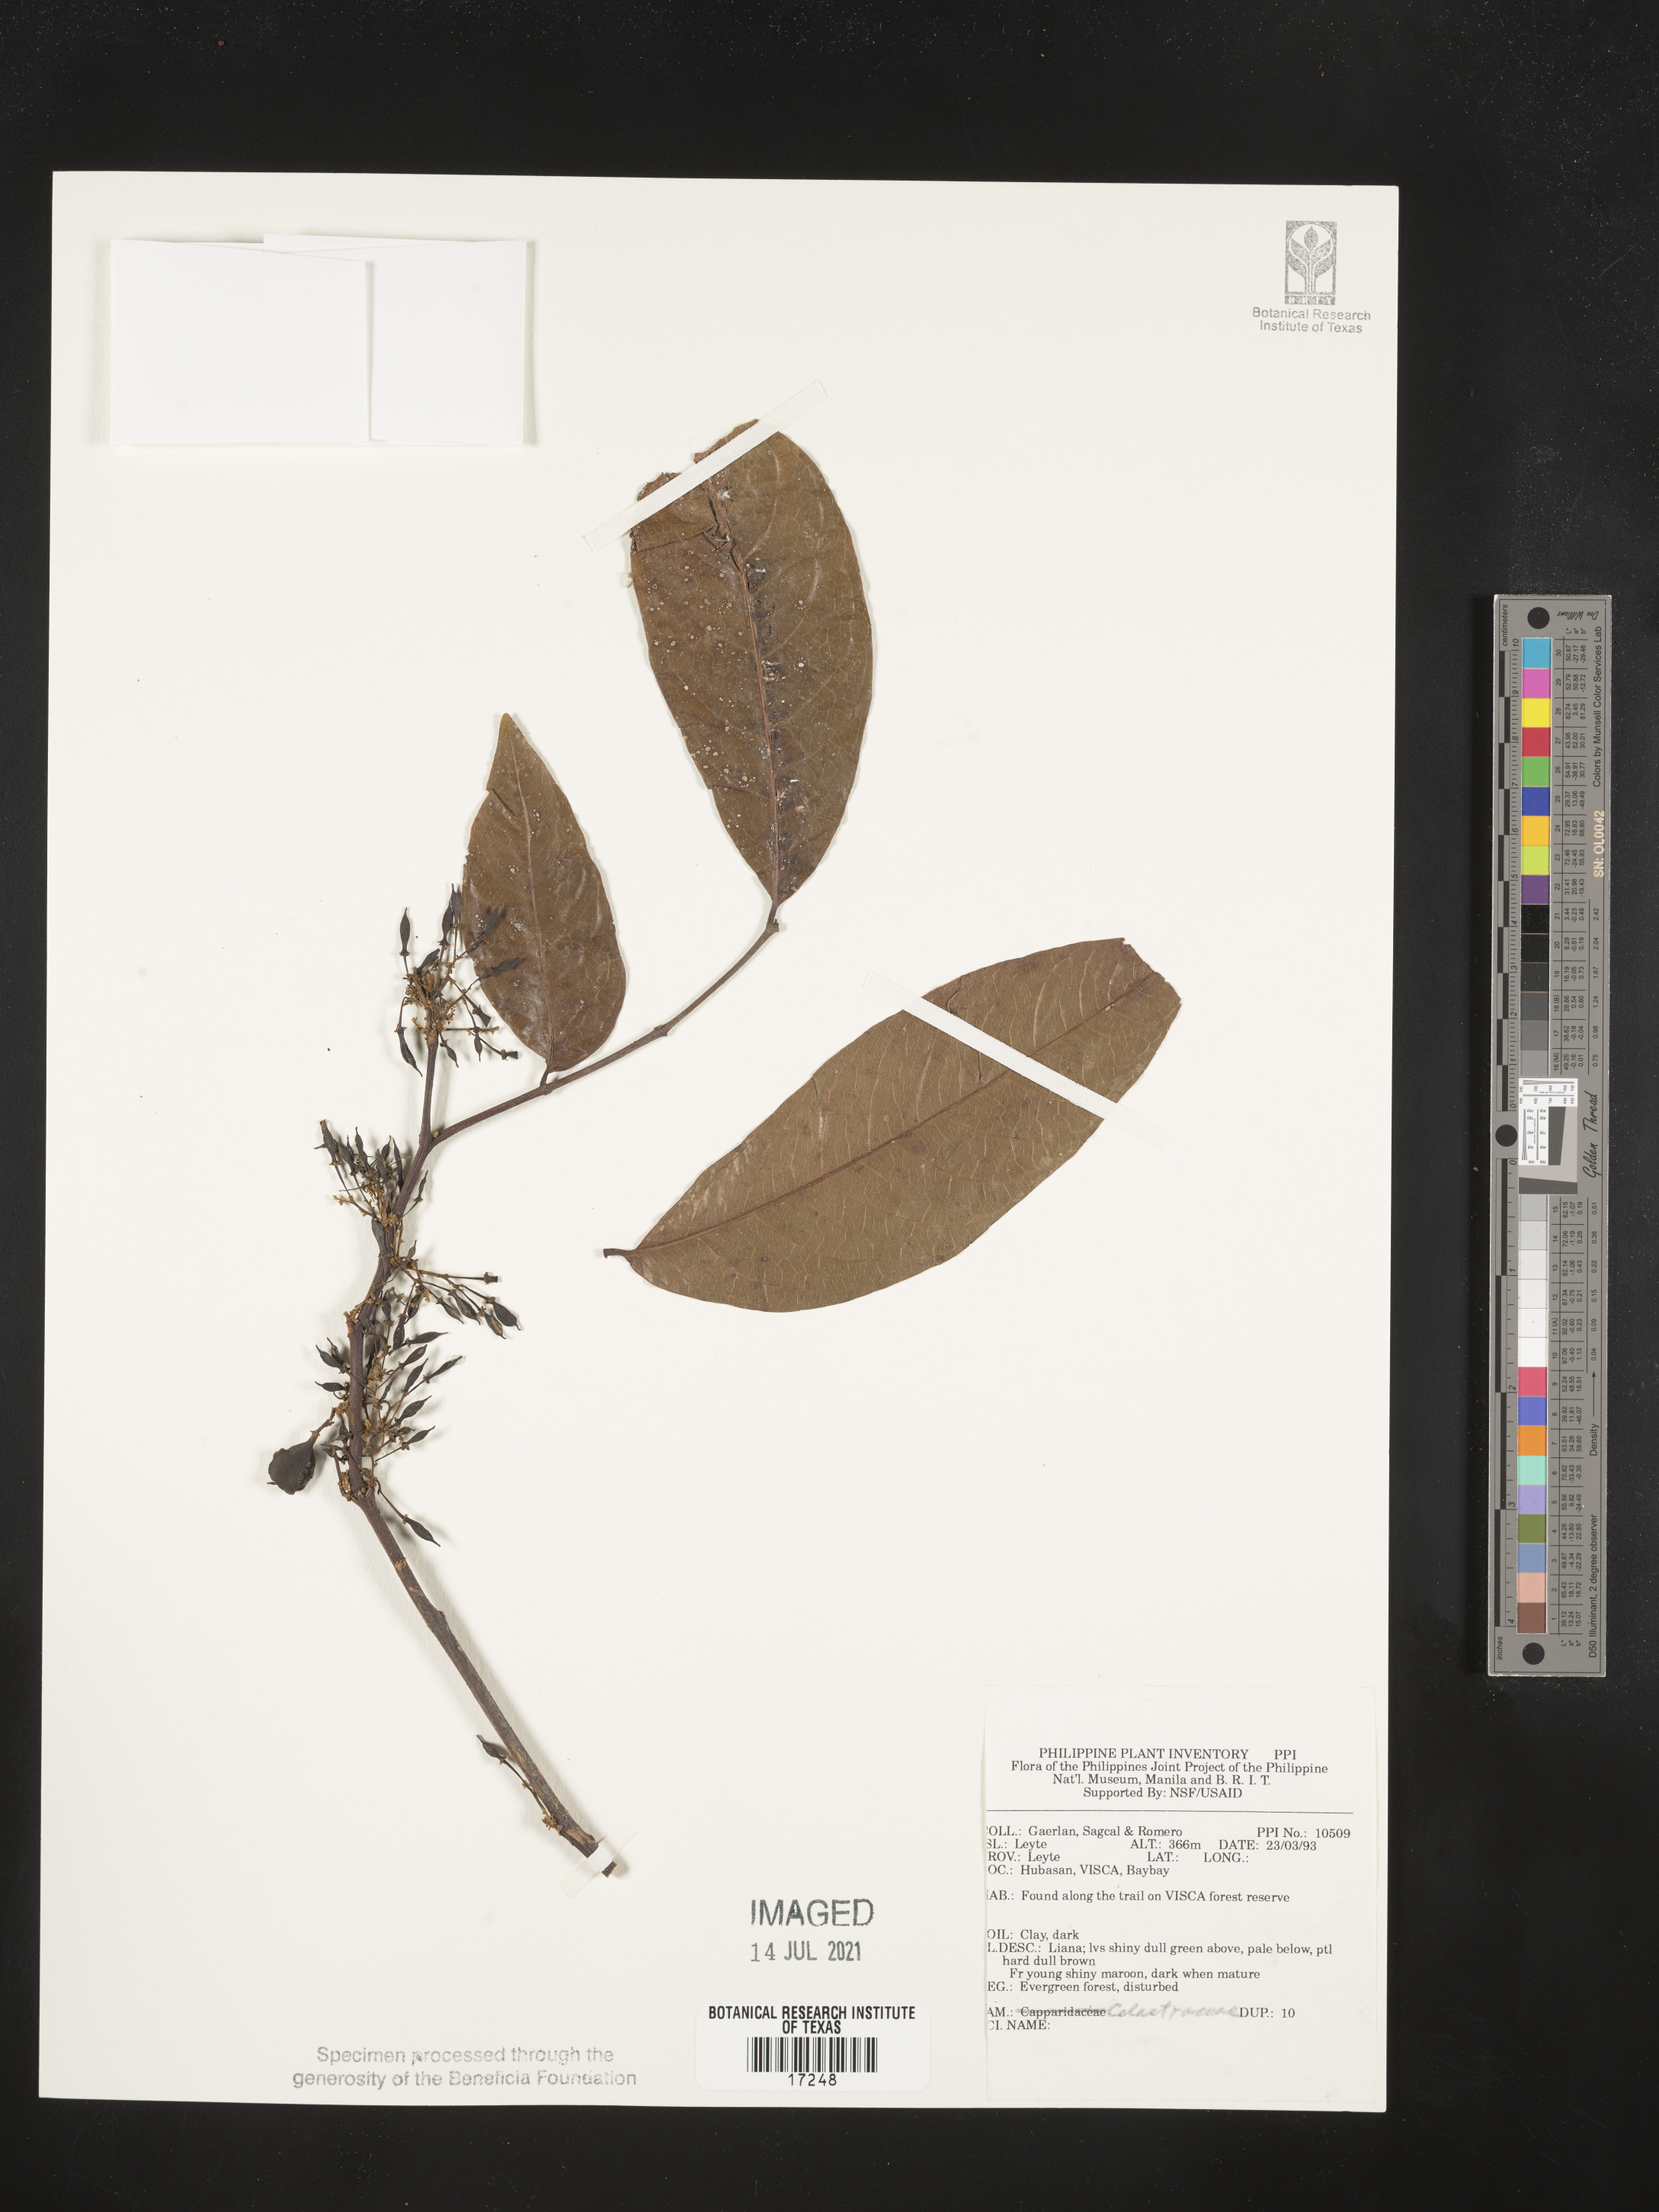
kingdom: Plantae
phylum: Tracheophyta
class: Magnoliopsida
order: Celastrales
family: Celastraceae
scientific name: Celastraceae
